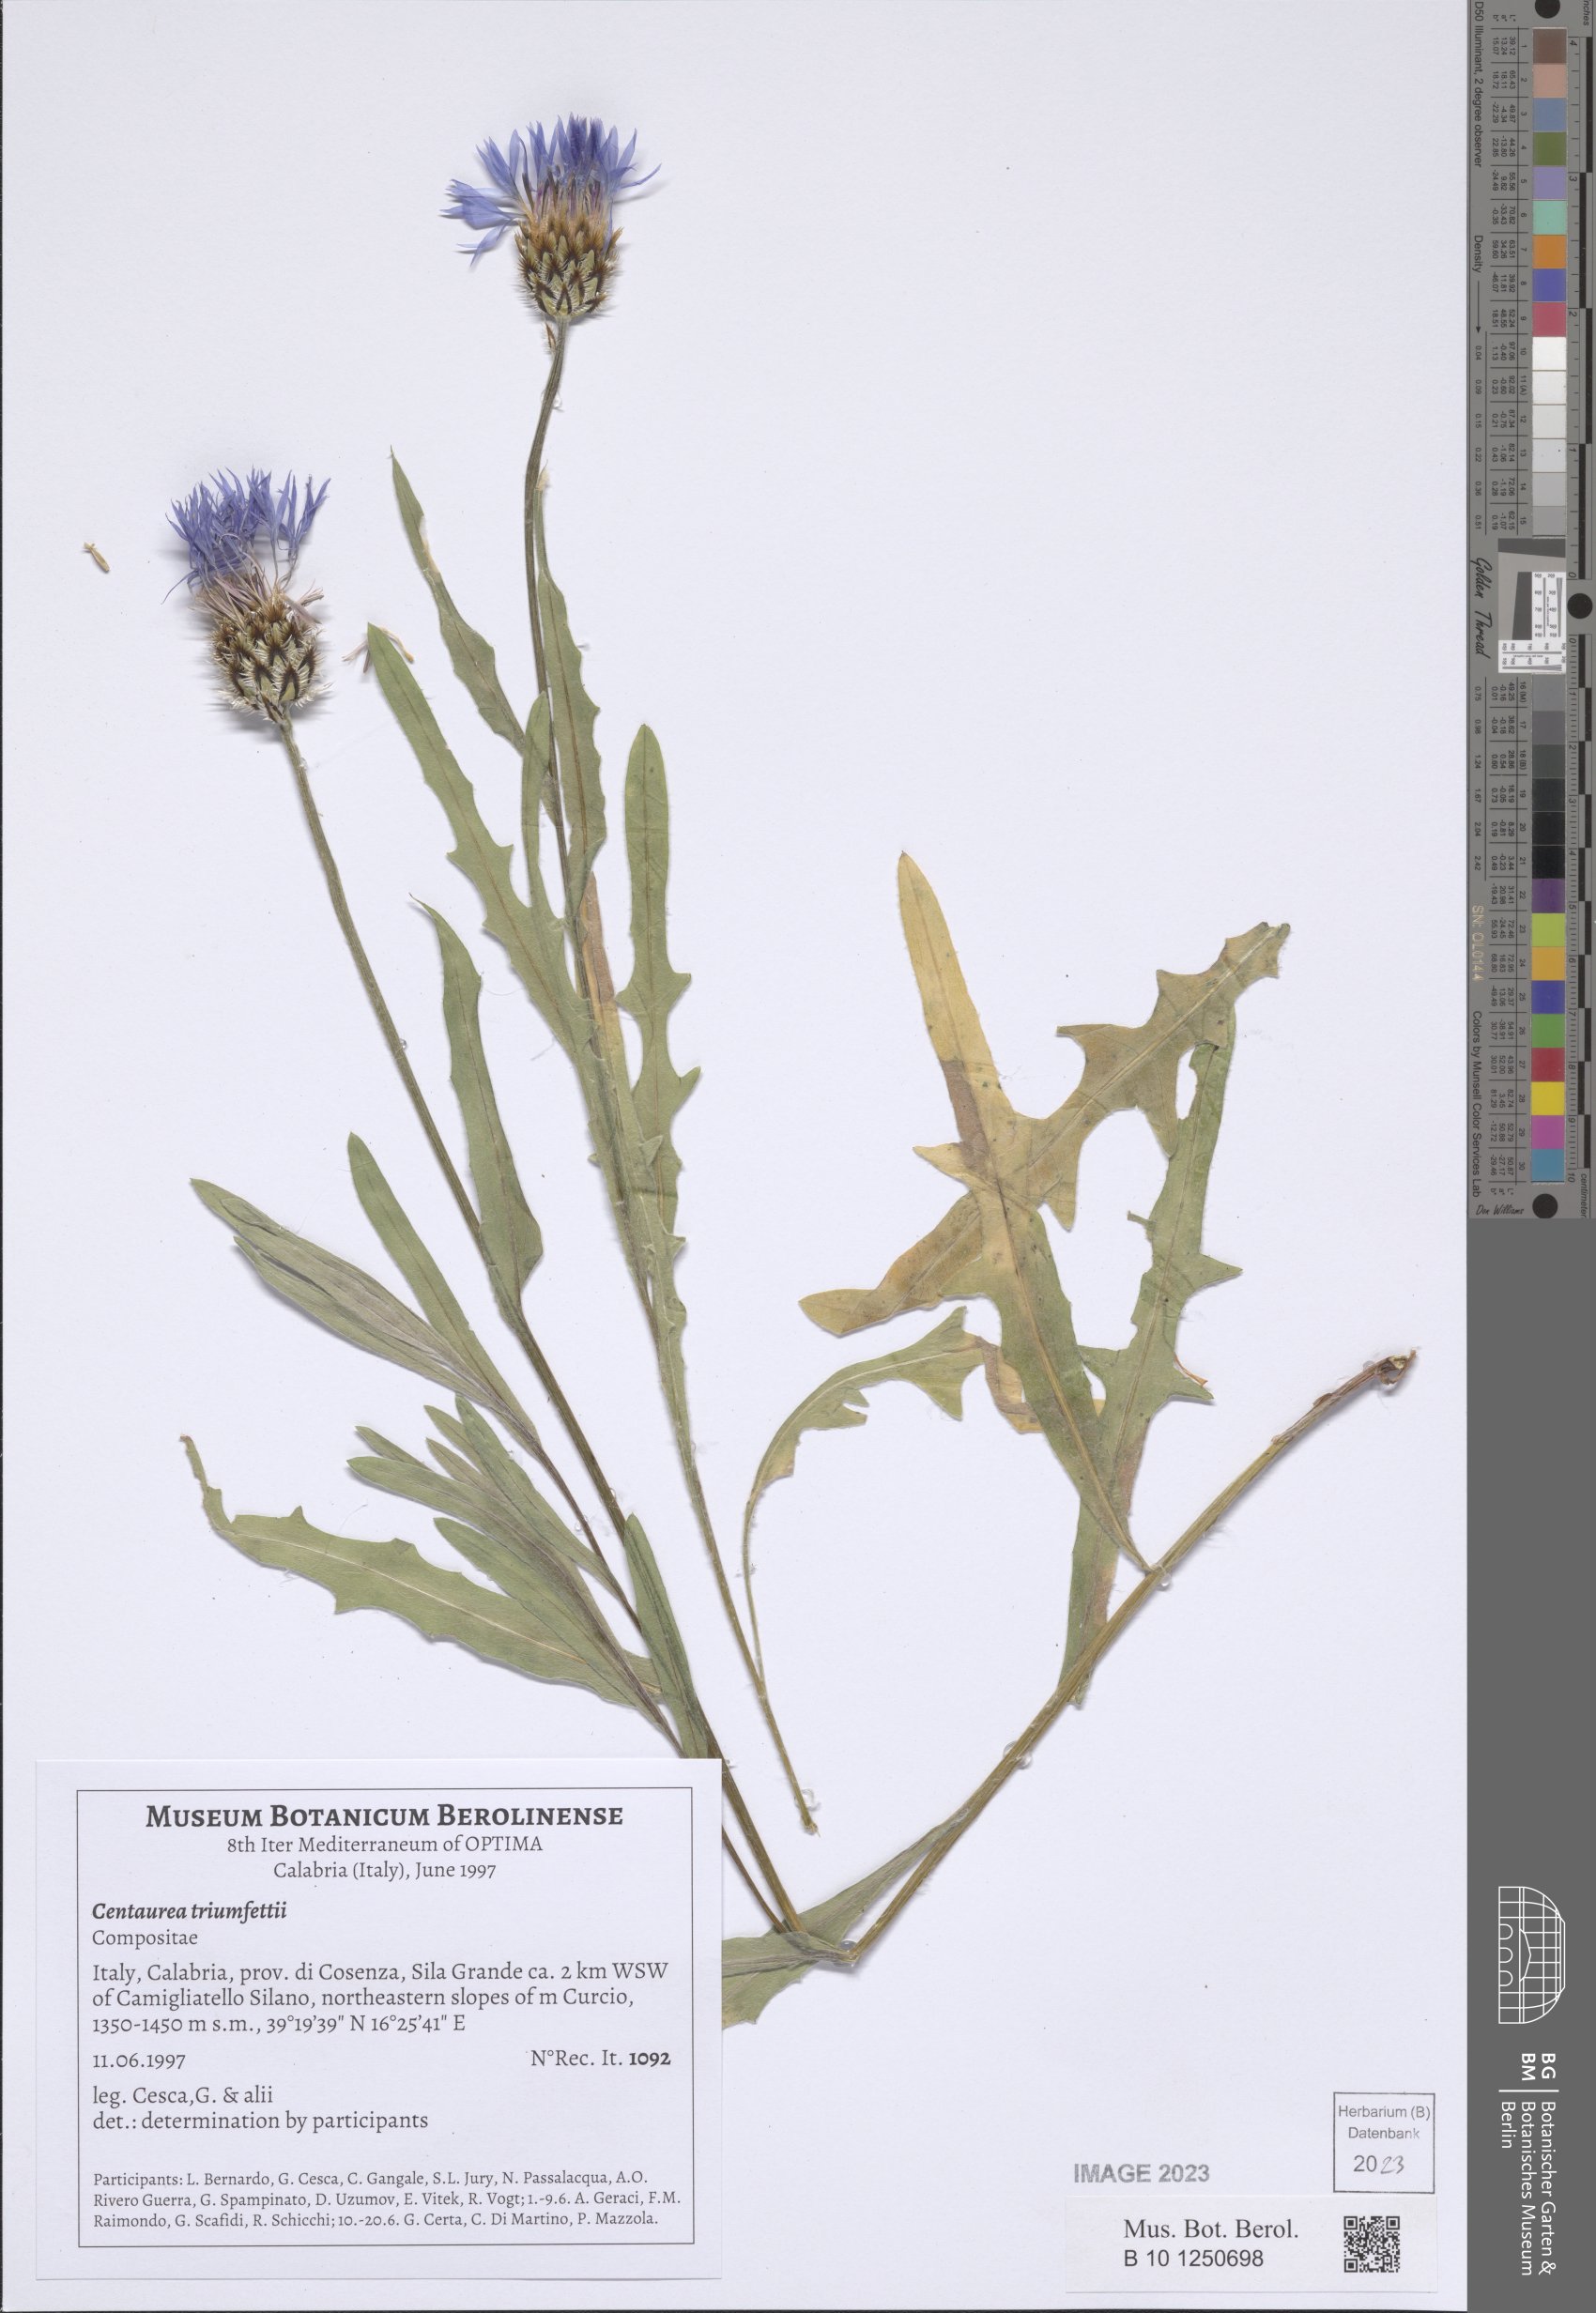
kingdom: Plantae
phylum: Tracheophyta
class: Magnoliopsida
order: Asterales
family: Asteraceae
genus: Centaurea
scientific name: Centaurea triumfettii
